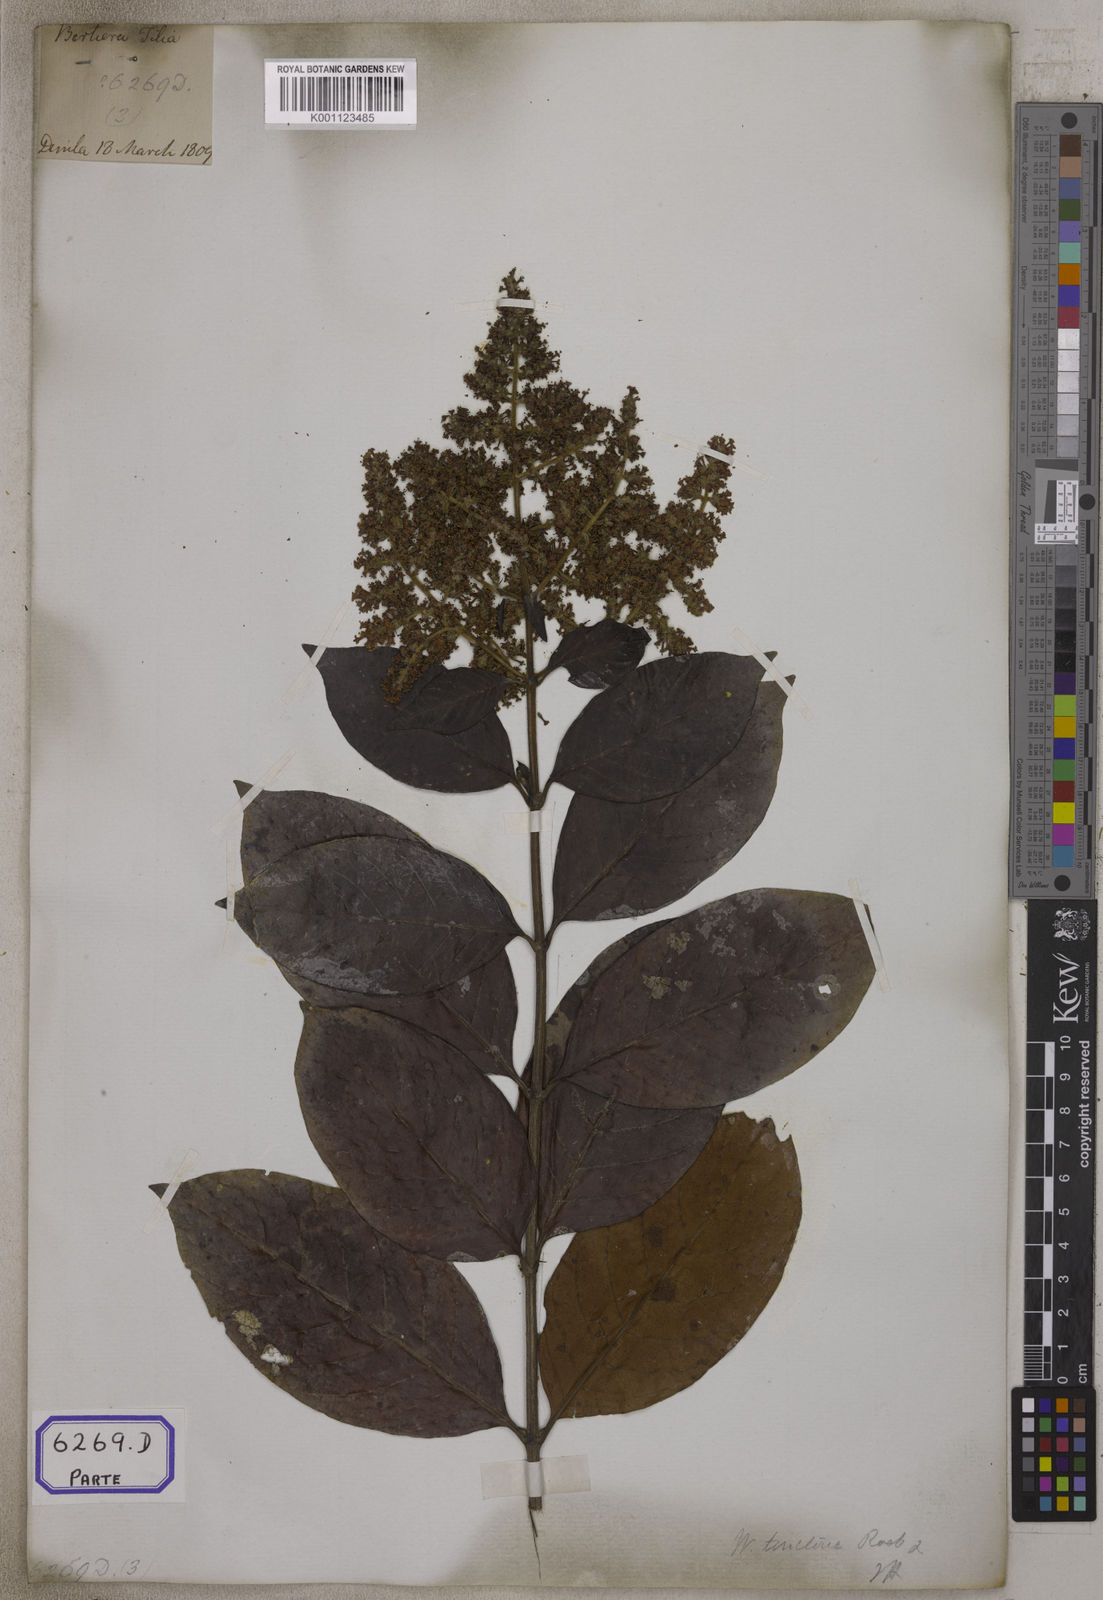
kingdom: Plantae
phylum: Tracheophyta
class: Magnoliopsida
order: Gentianales
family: Rubiaceae
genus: Wendlandia
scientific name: Wendlandia tinctoria
